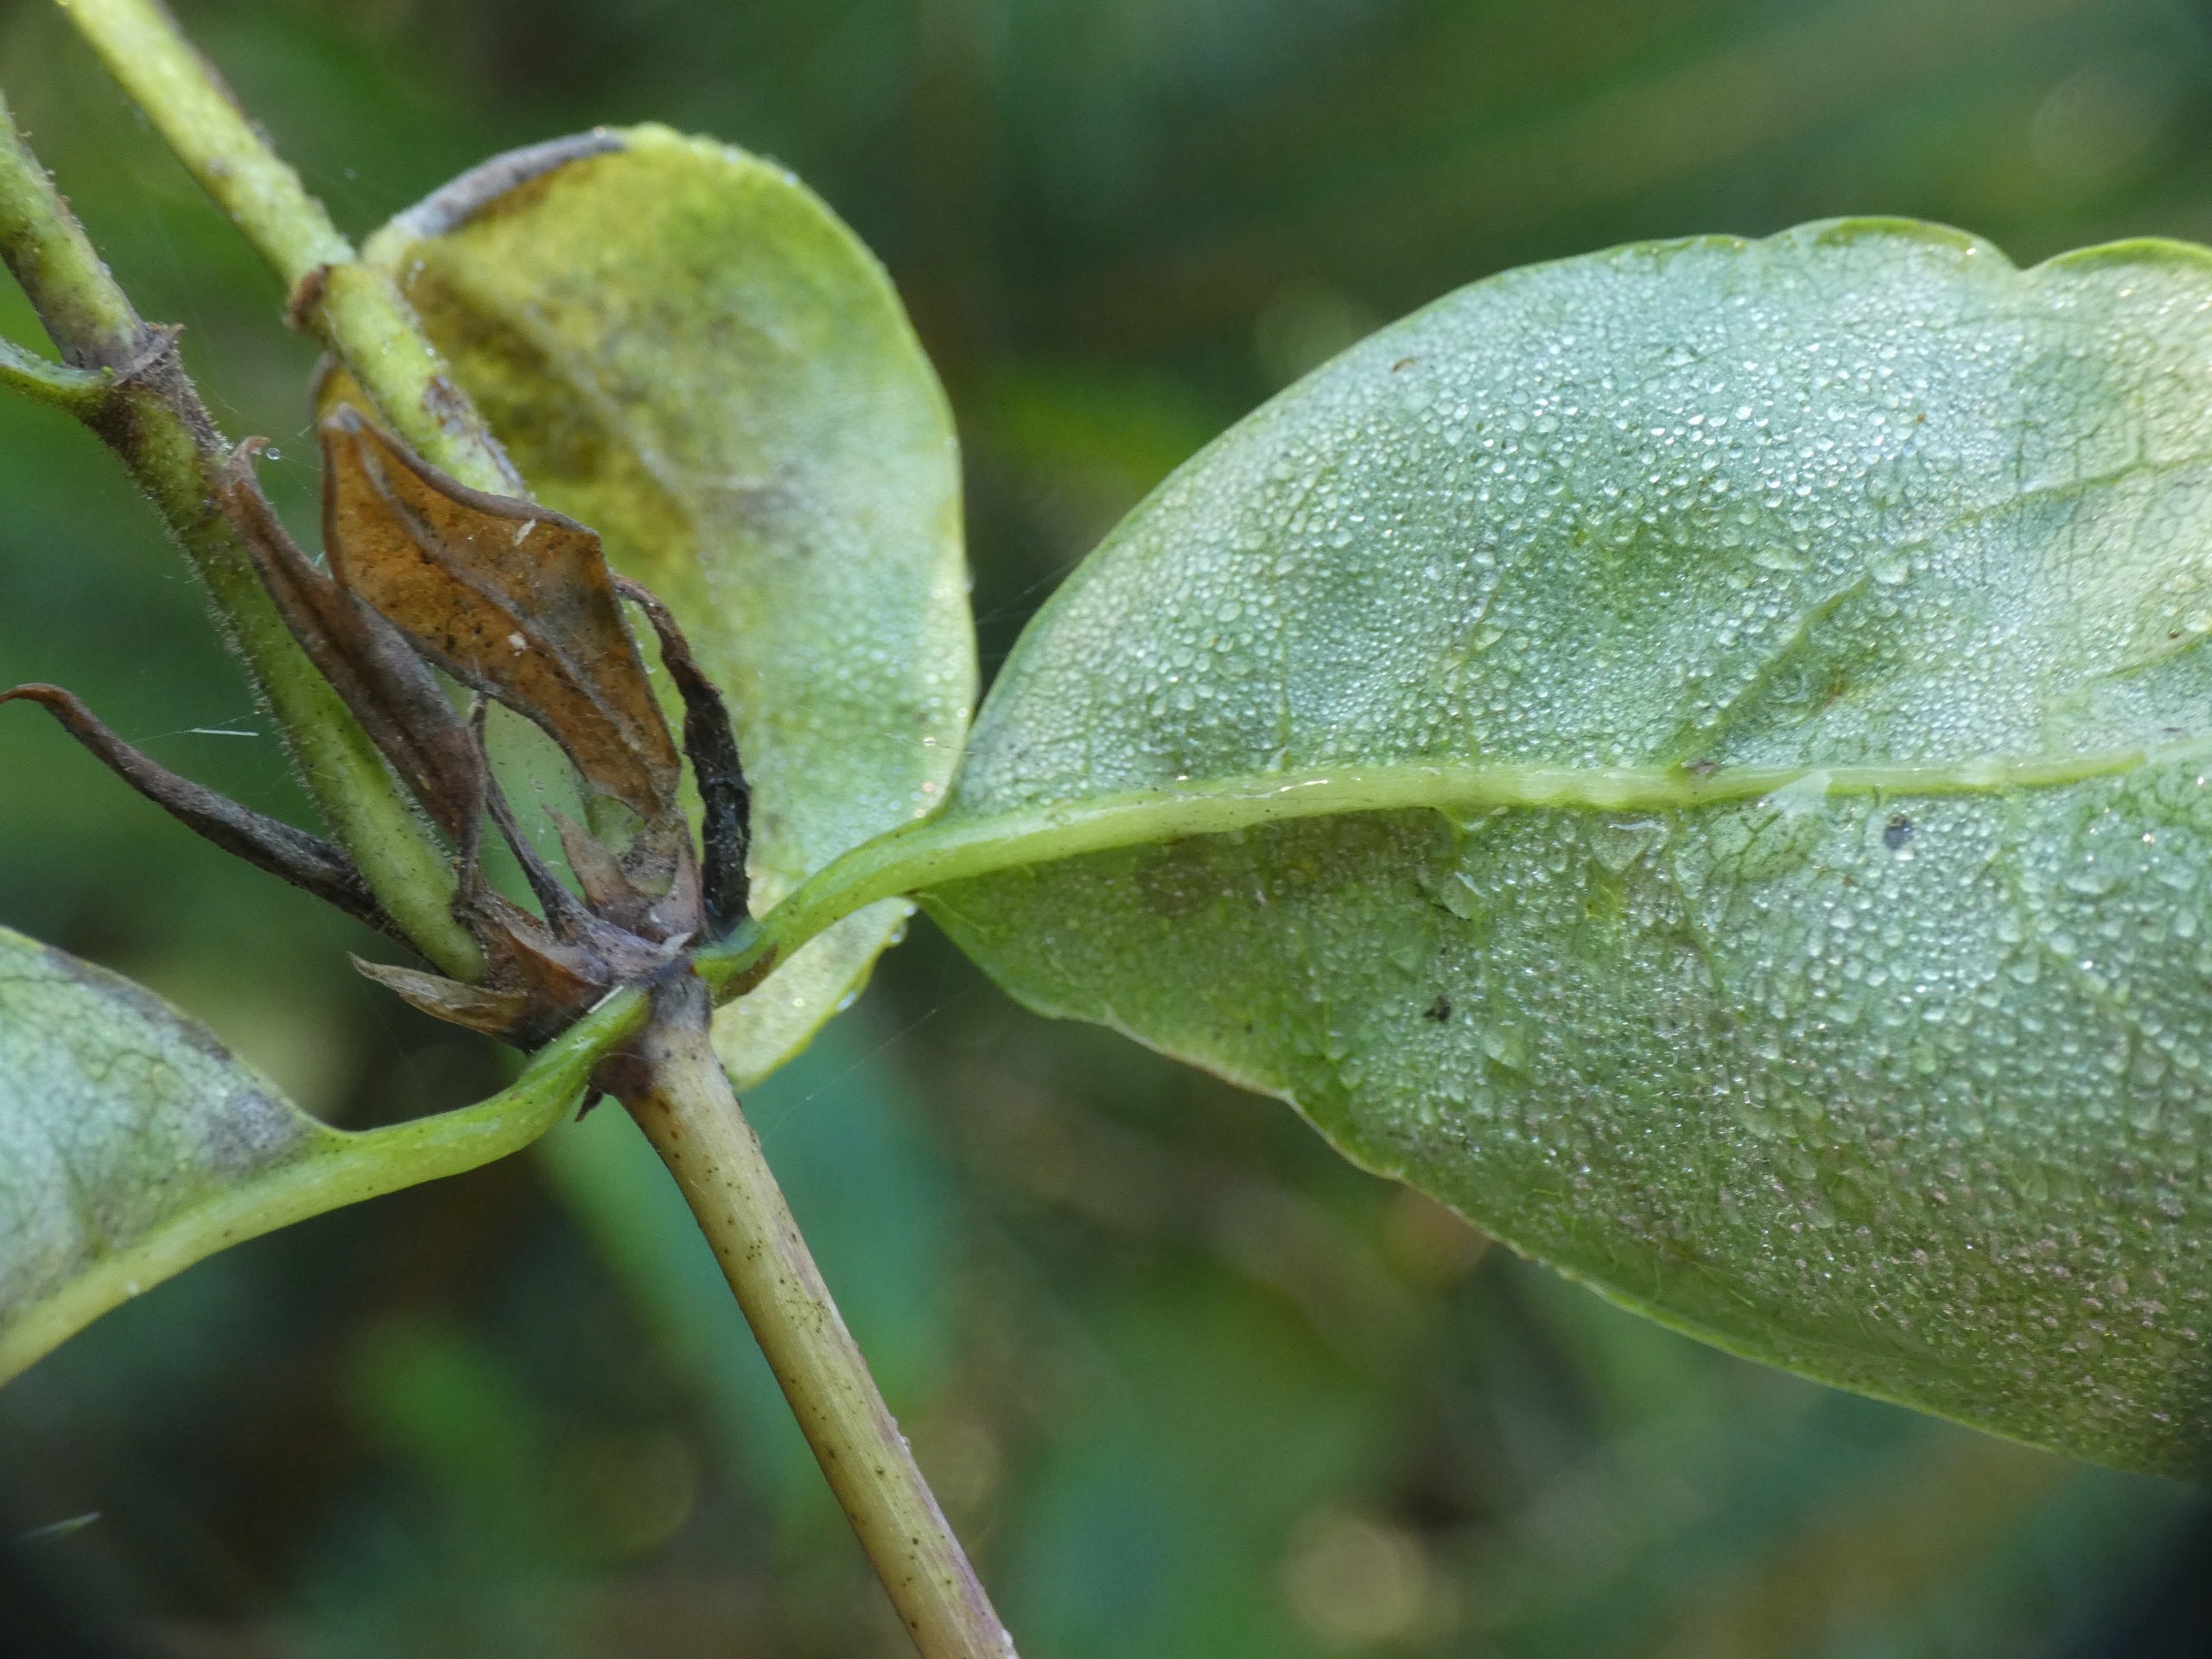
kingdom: Plantae
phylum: Tracheophyta
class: Magnoliopsida
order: Dipsacales
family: Caprifoliaceae
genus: Lonicera
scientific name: Lonicera periclymenum
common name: Almindelig gedeblad
